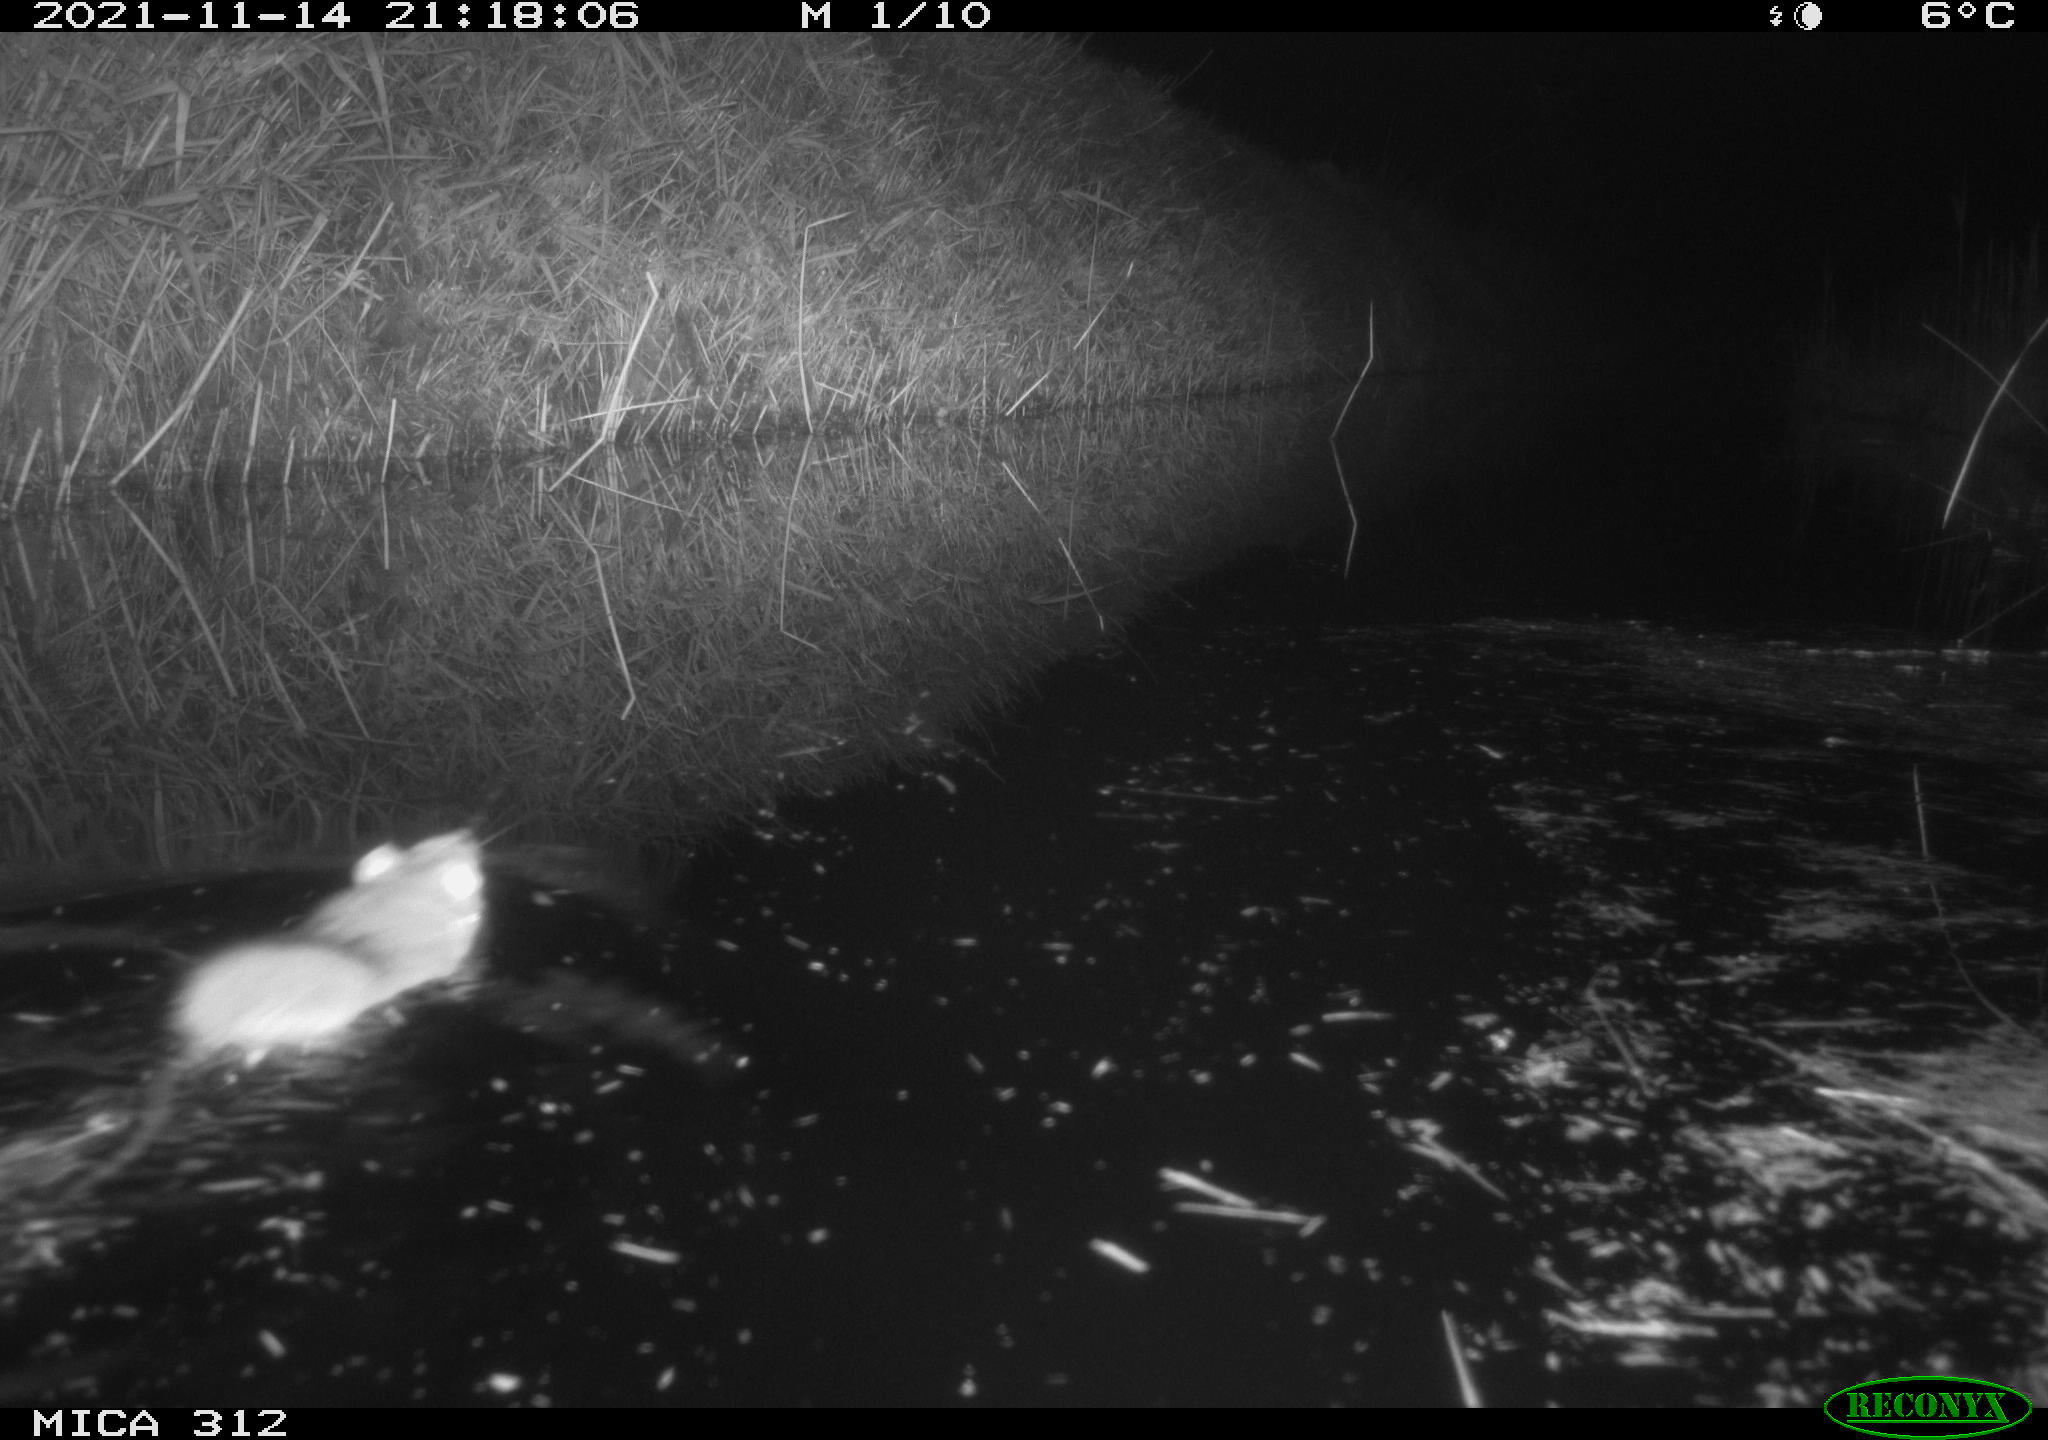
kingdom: Animalia
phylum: Chordata
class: Mammalia
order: Rodentia
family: Muridae
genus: Rattus
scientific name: Rattus norvegicus
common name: Brown rat
